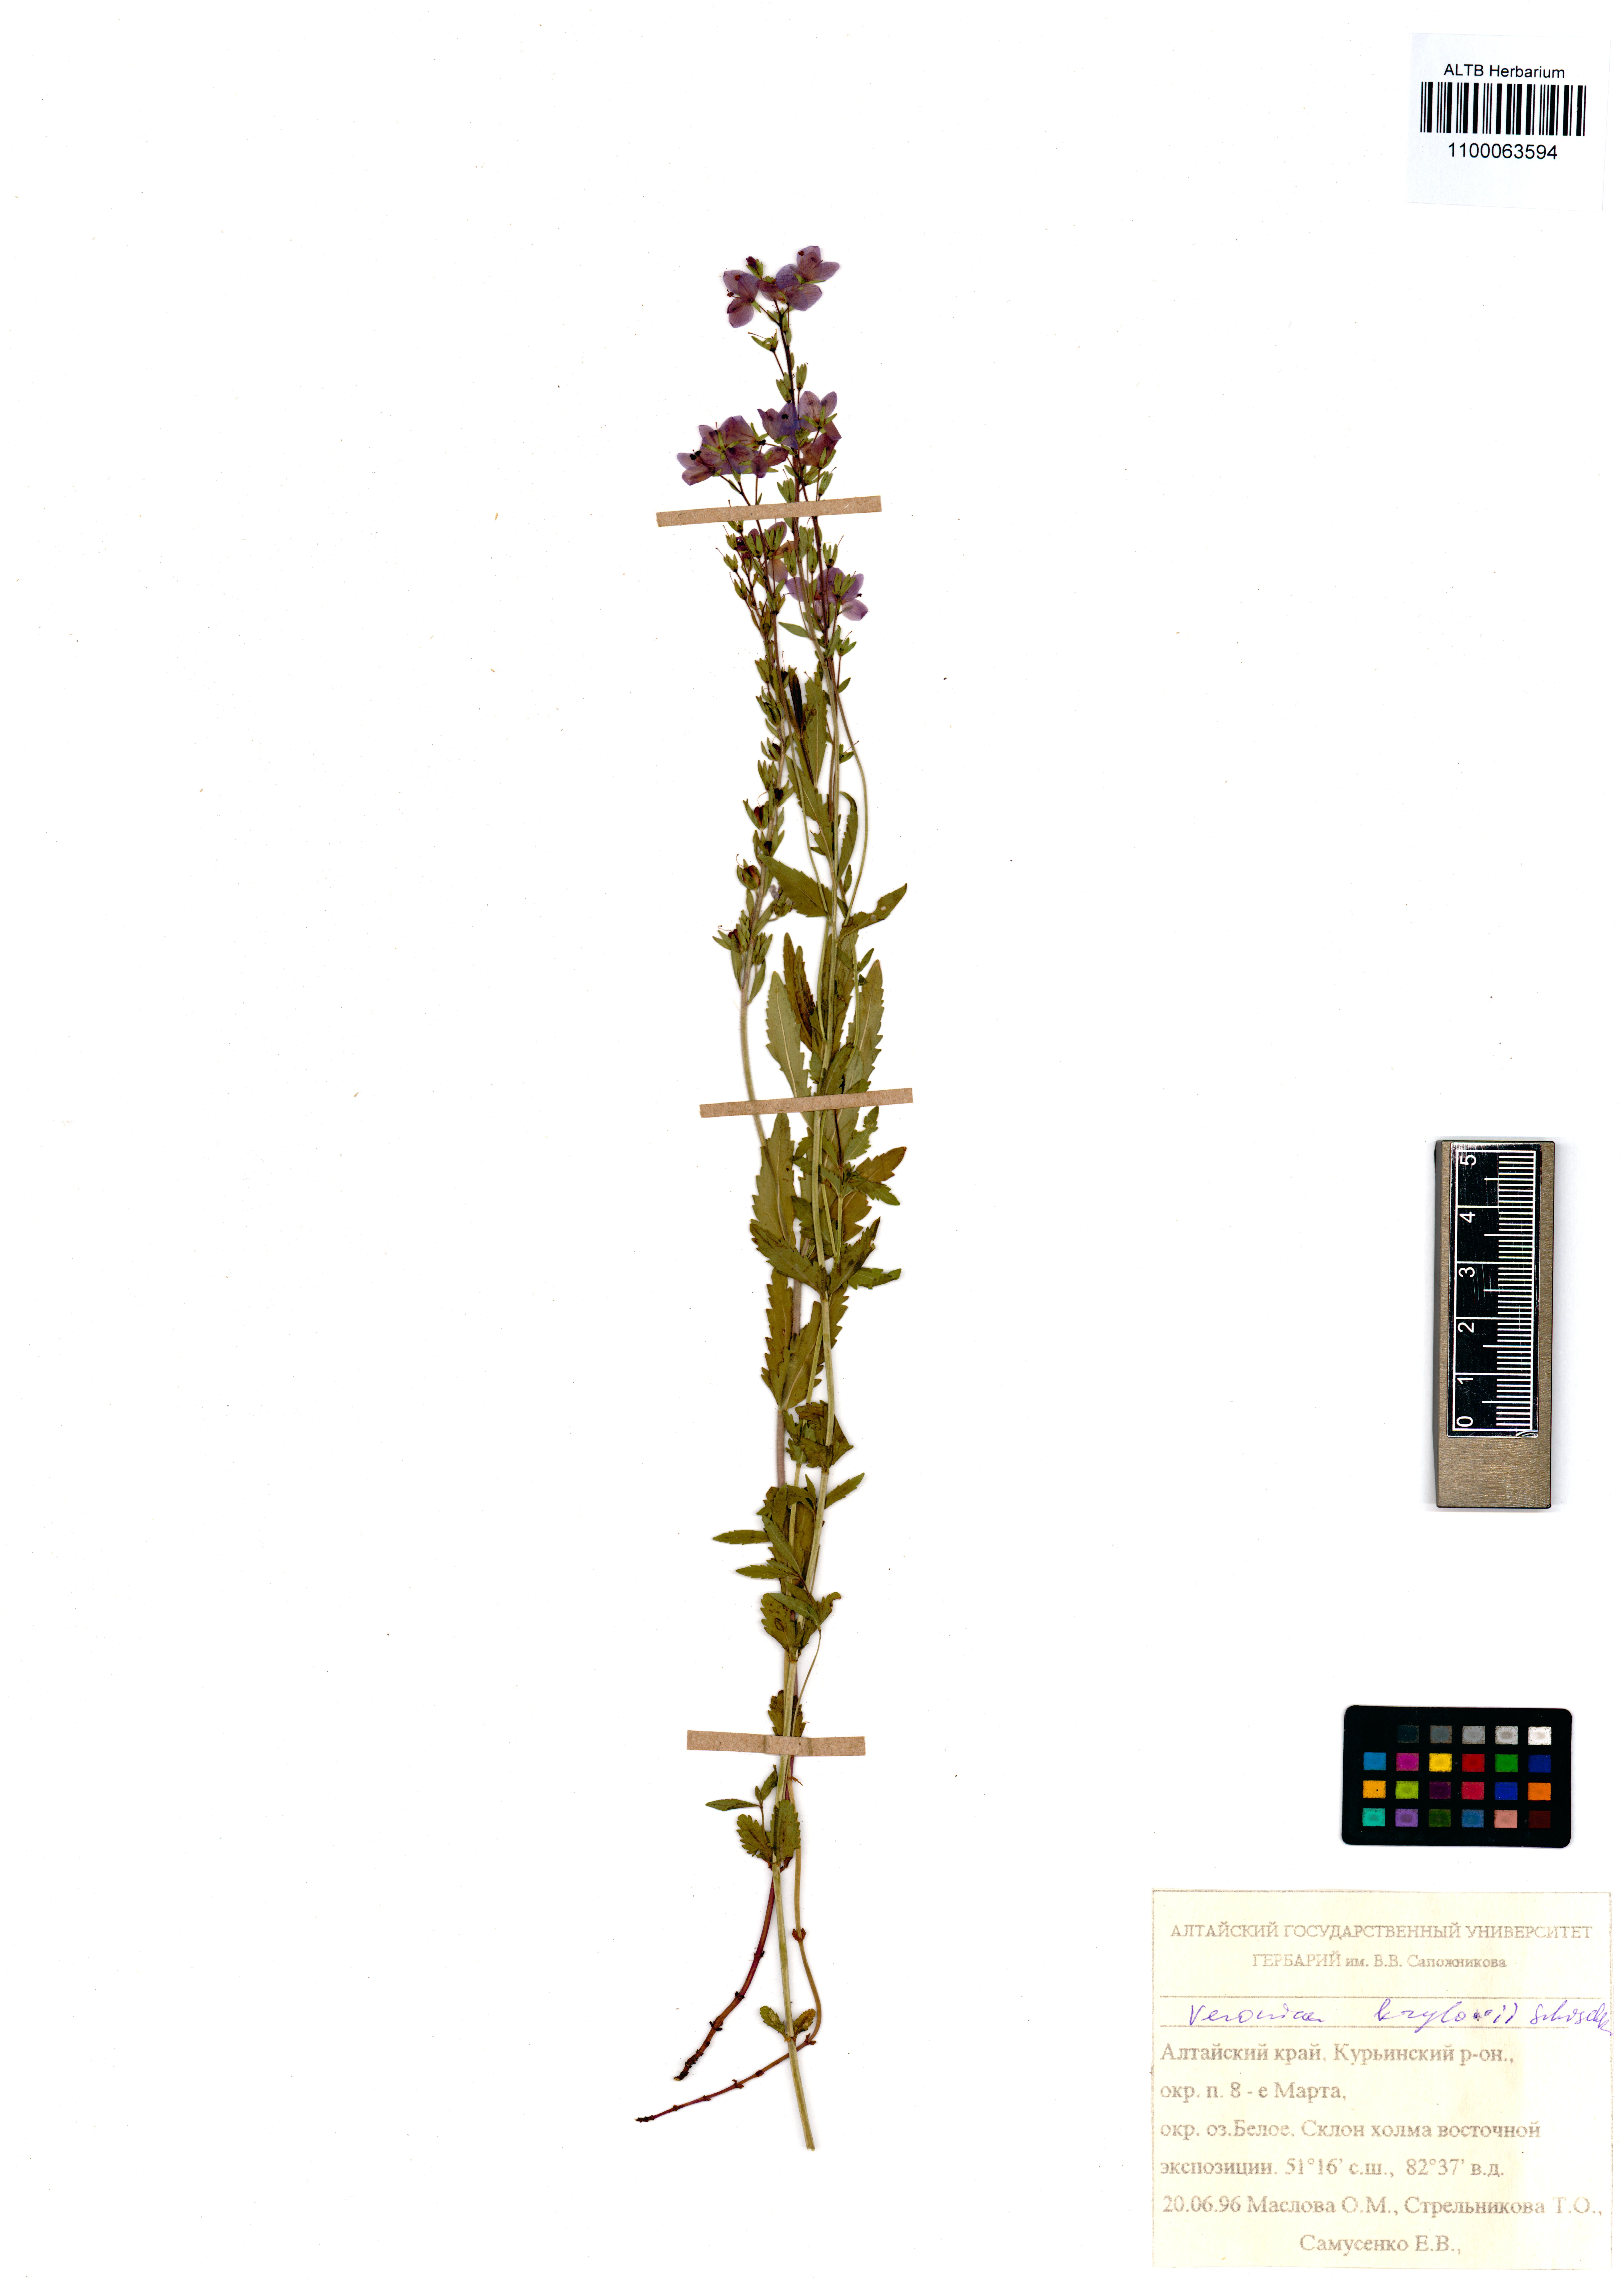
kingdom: Plantae
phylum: Tracheophyta
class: Magnoliopsida
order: Lamiales
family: Plantaginaceae
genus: Veronica
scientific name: Veronica krylovii
